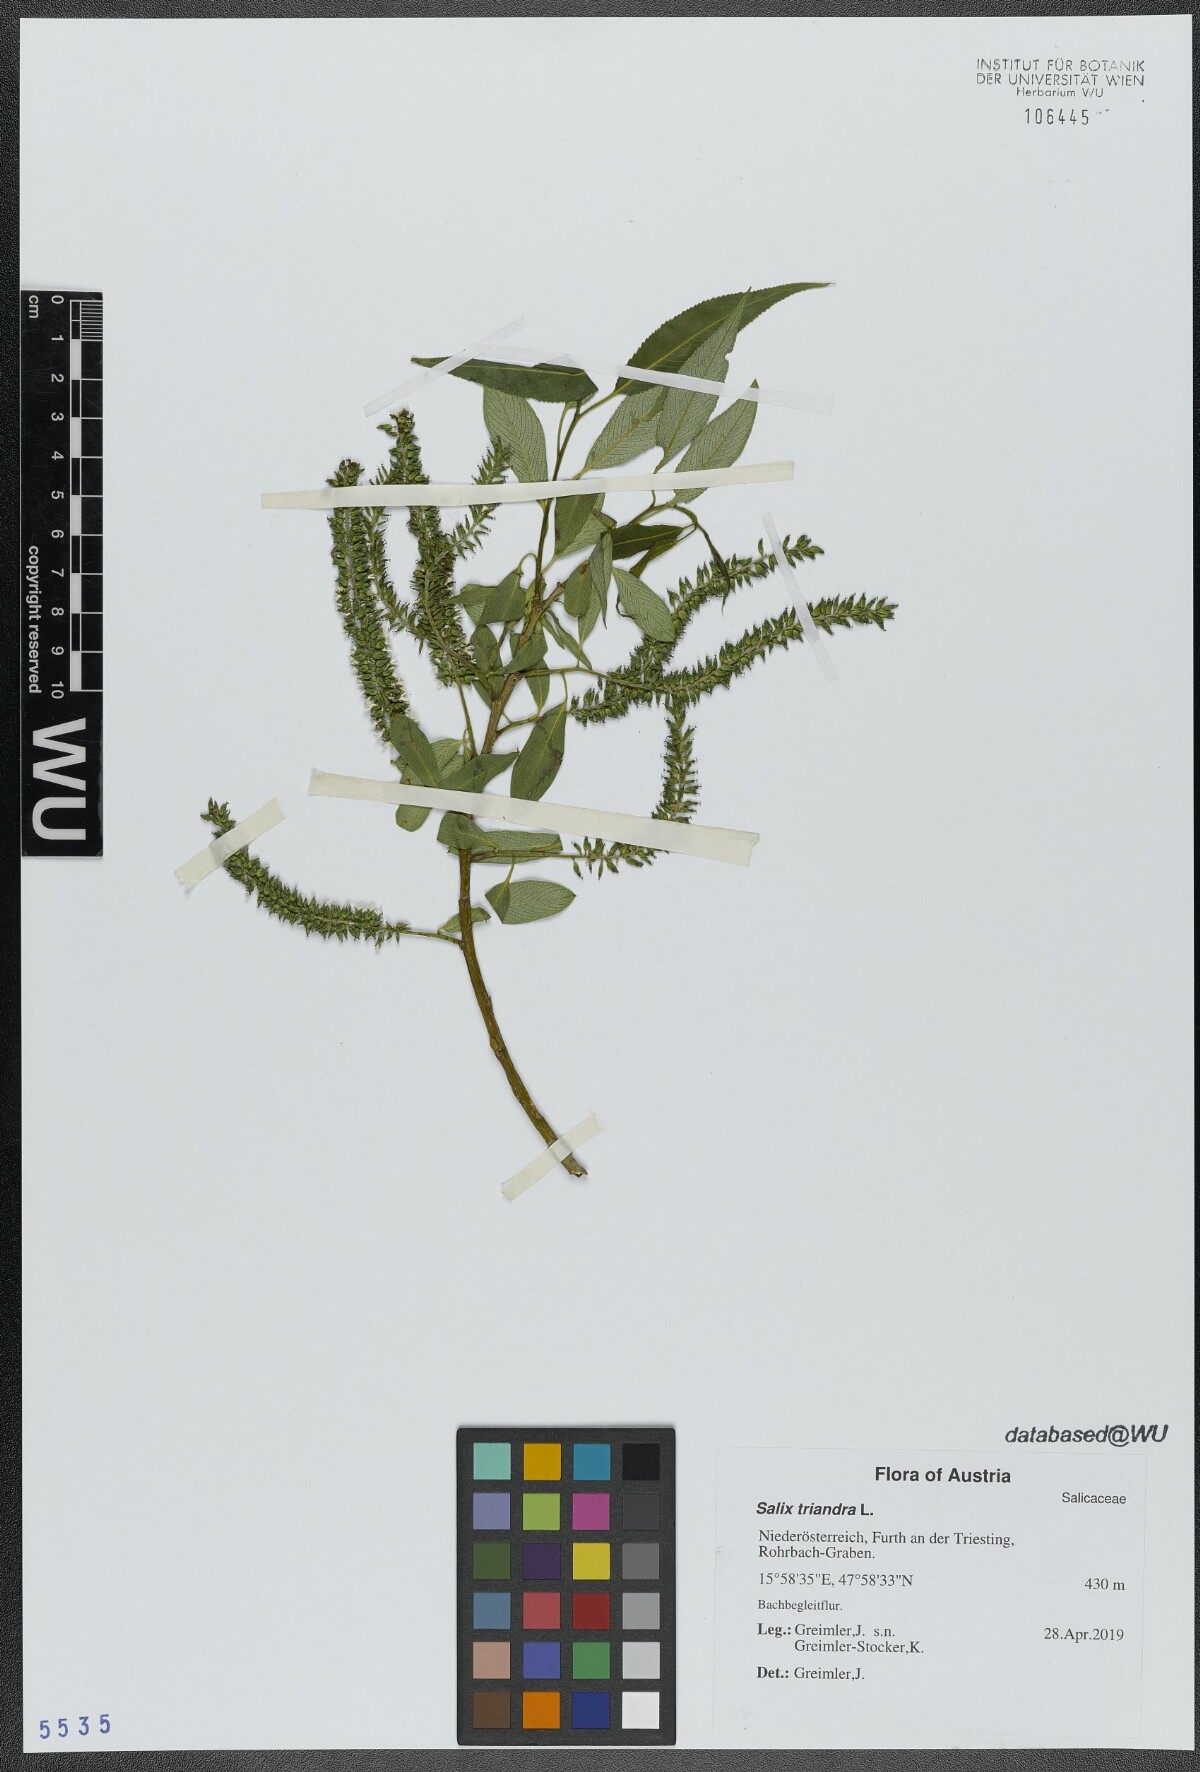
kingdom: Plantae
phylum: Tracheophyta
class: Magnoliopsida
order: Malpighiales
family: Salicaceae
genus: Salix
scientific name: Salix triandra
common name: Almond willow
